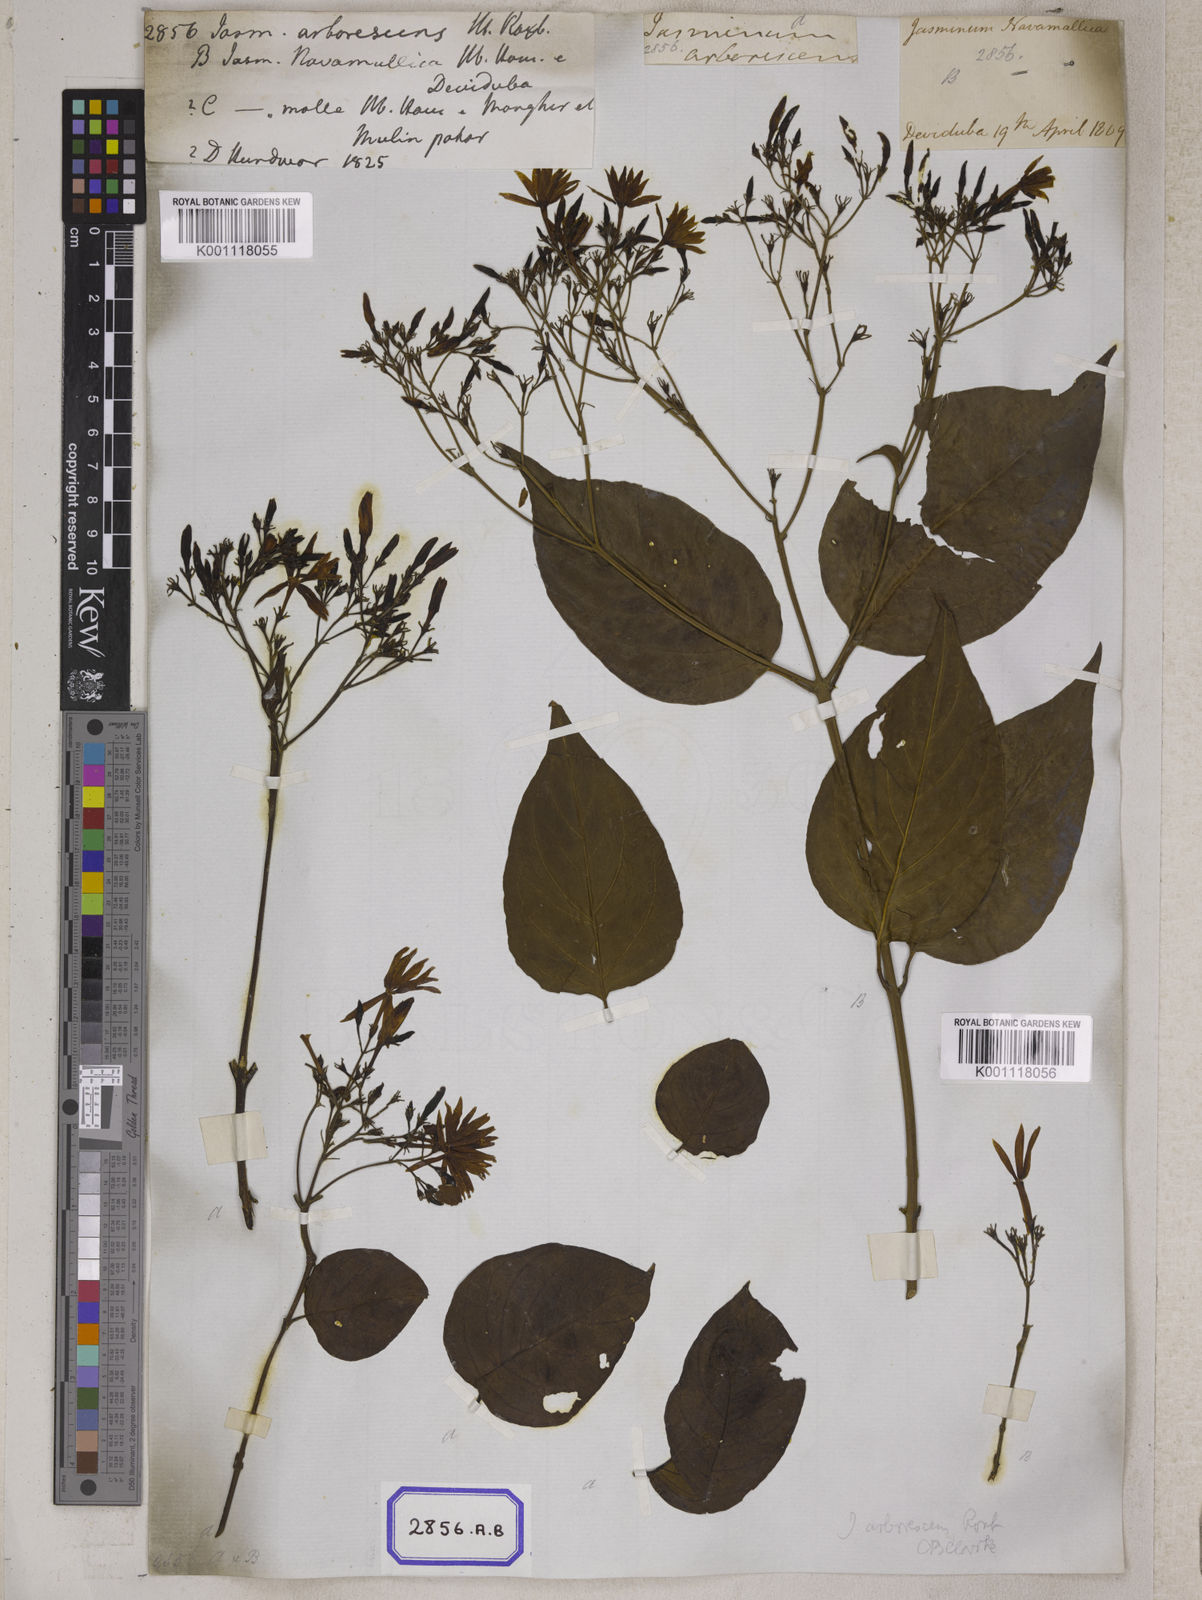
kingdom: Plantae
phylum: Tracheophyta
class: Magnoliopsida
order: Lamiales
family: Oleaceae
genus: Jasminum
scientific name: Jasminum arborescens
